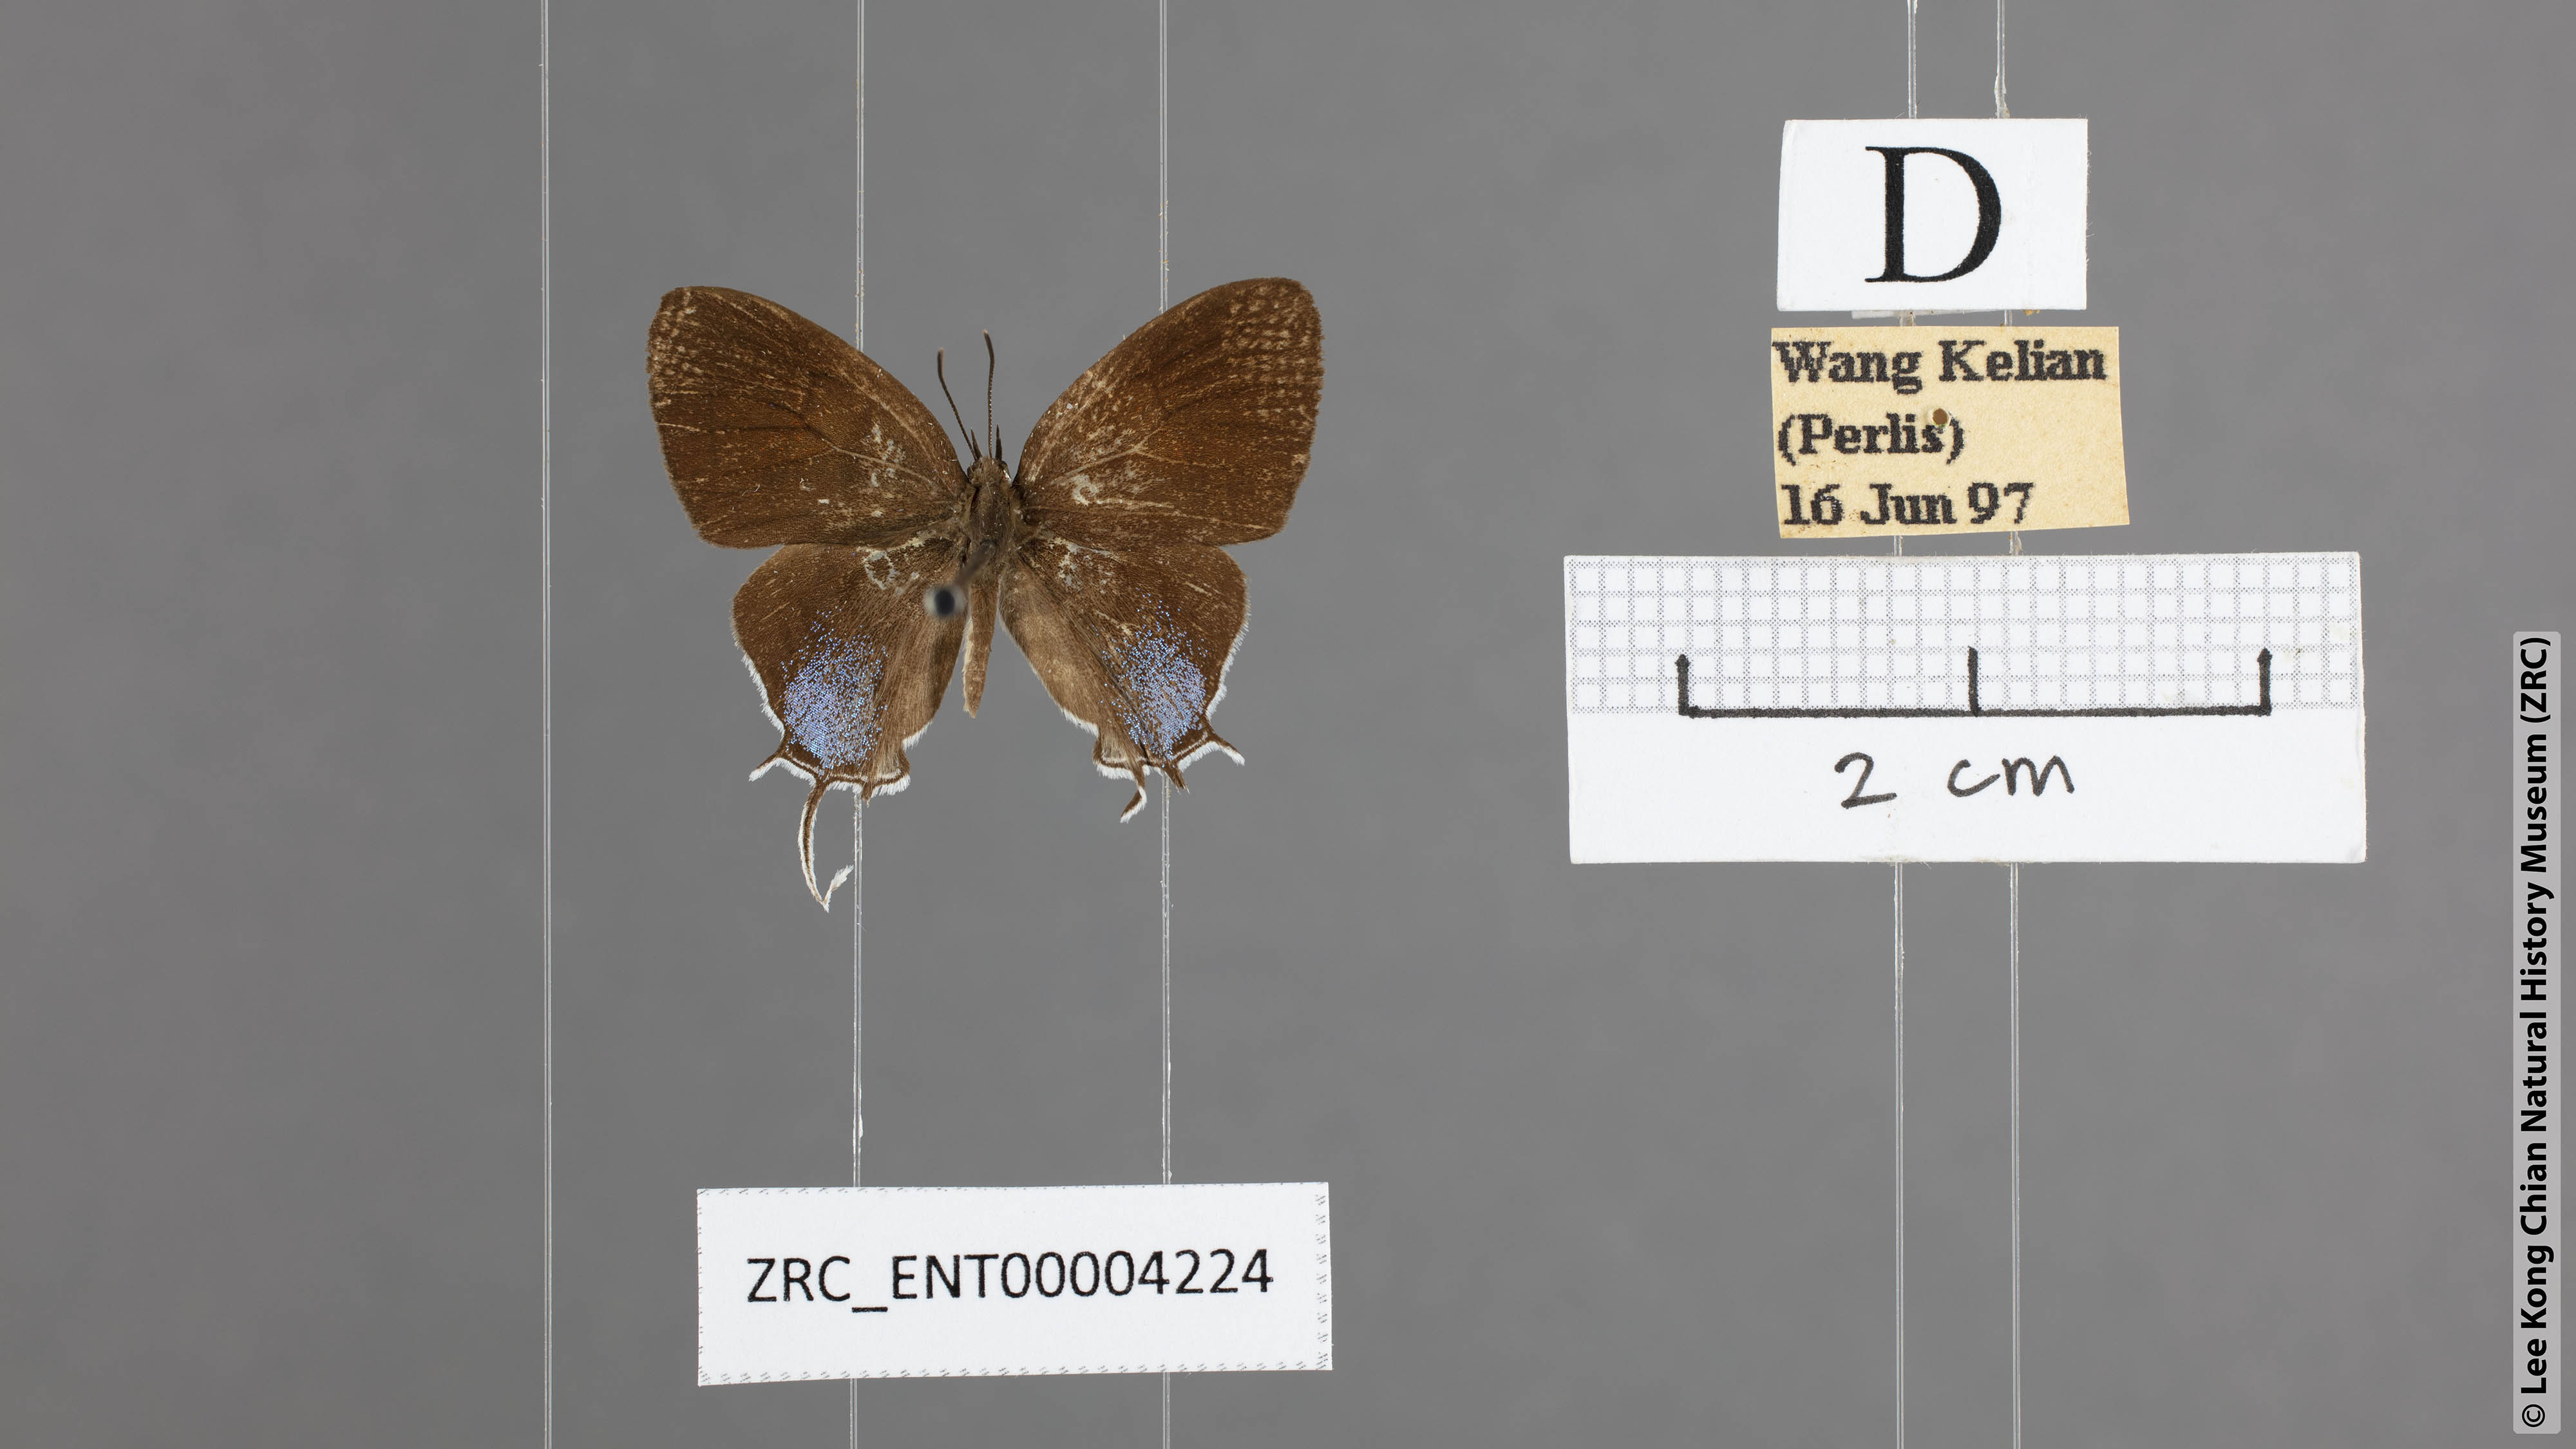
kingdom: Animalia
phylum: Arthropoda
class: Insecta
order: Lepidoptera
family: Lycaenidae
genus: Drupadia
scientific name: Drupadia rufotaenia
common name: Pygmy posy
